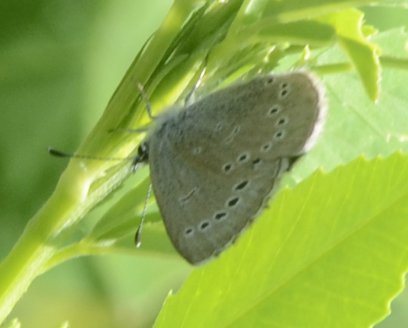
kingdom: Animalia
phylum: Arthropoda
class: Insecta
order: Lepidoptera
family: Lycaenidae
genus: Glaucopsyche
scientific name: Glaucopsyche lygdamus
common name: Silvery Blue
